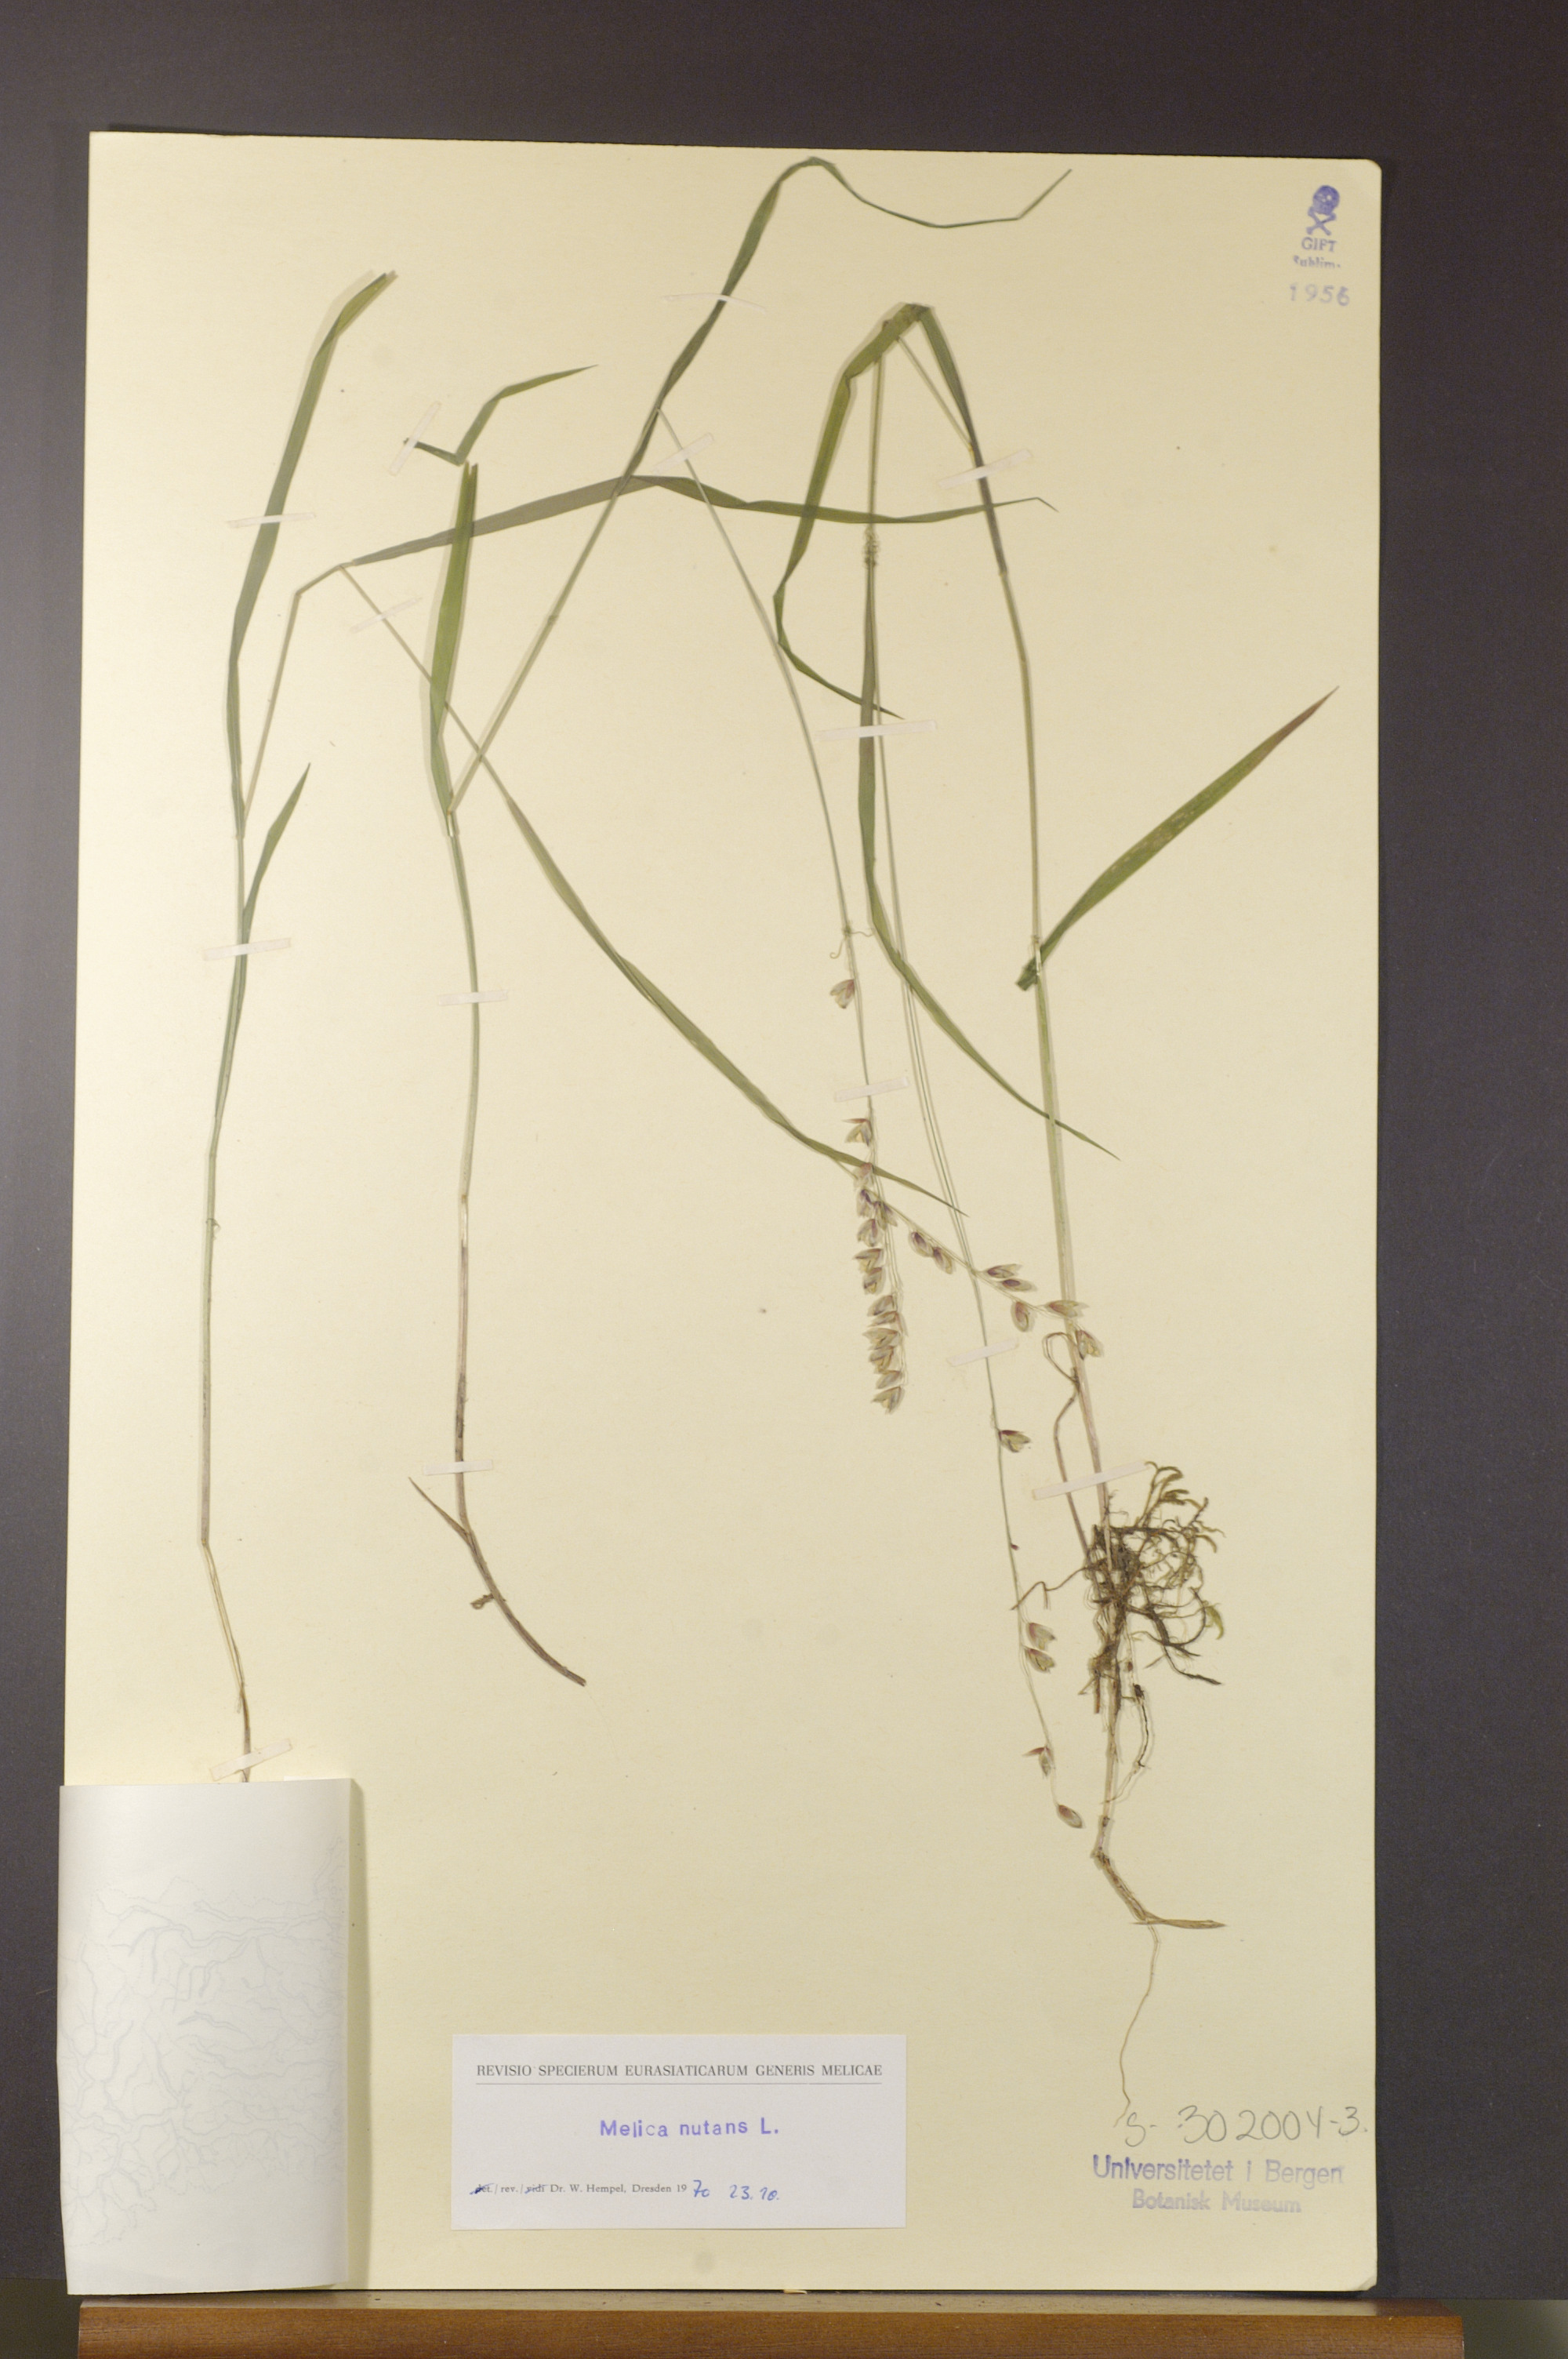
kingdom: Plantae
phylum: Tracheophyta
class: Liliopsida
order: Poales
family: Poaceae
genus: Melica
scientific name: Melica nutans
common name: Mountain melick
